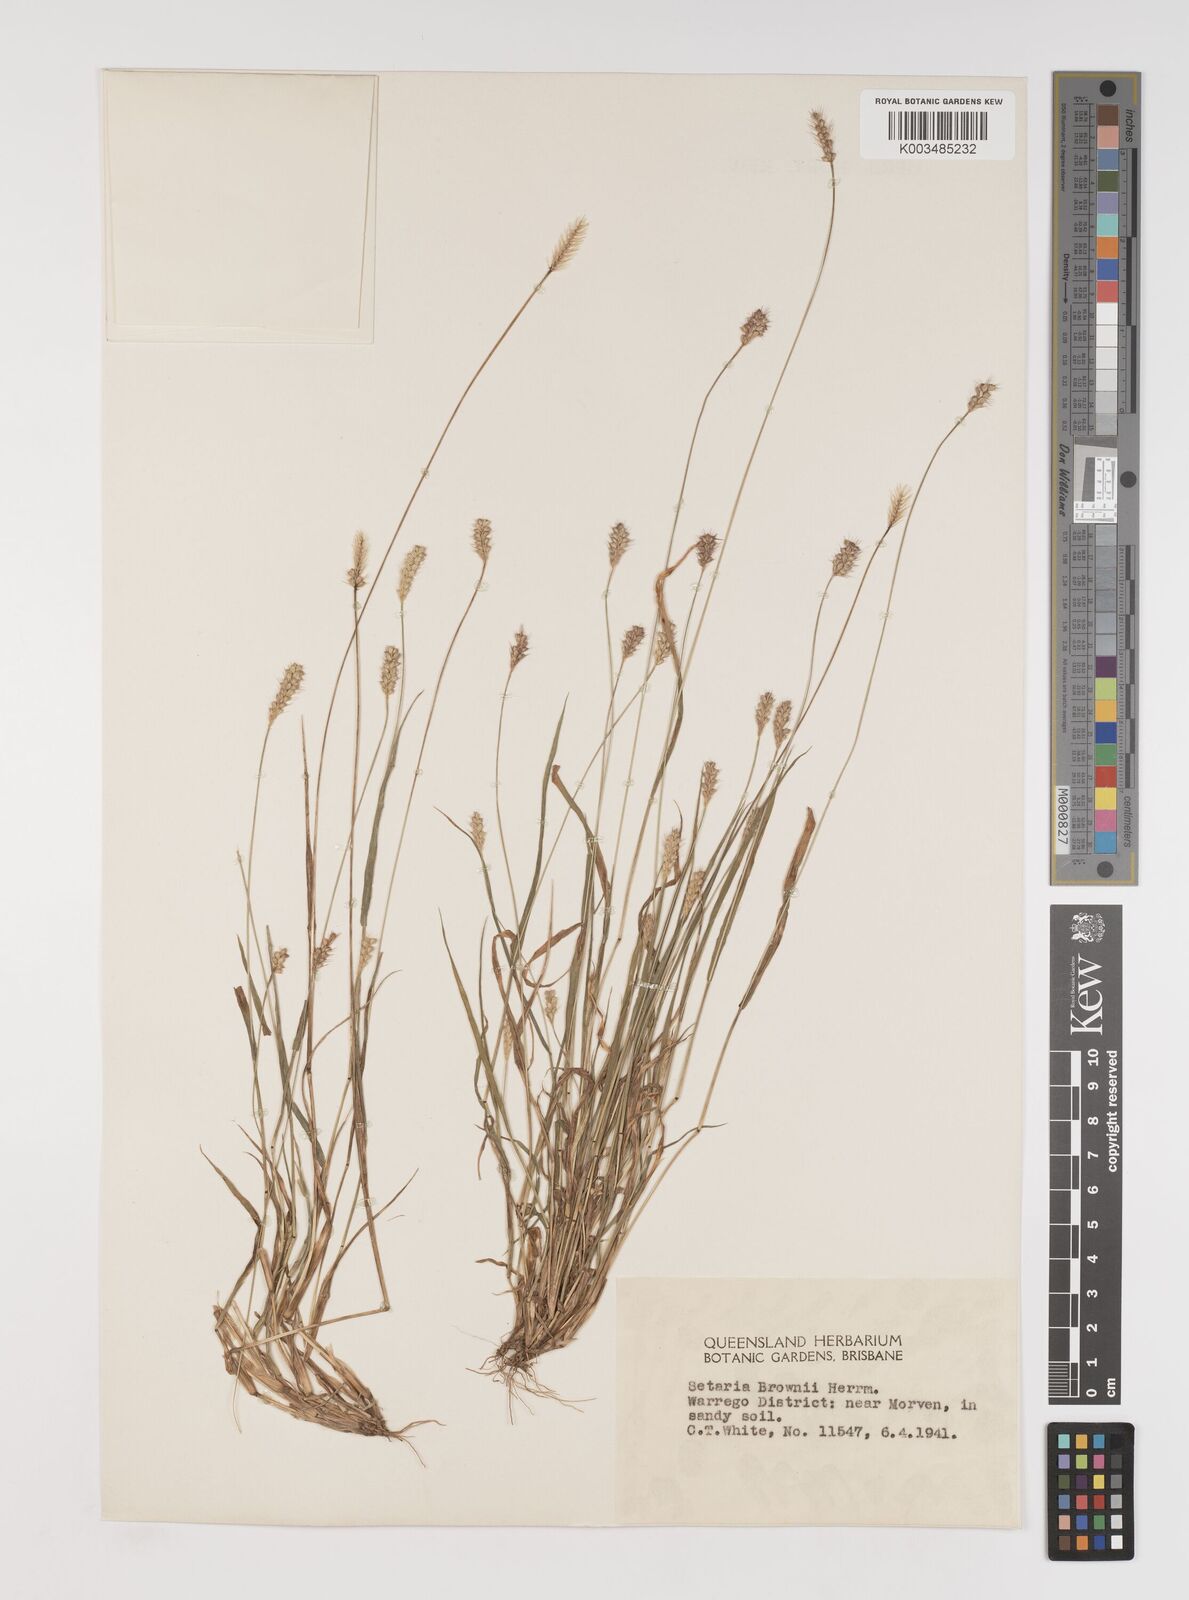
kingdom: Plantae
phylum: Tracheophyta
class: Liliopsida
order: Poales
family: Poaceae
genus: Setaria
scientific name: Setaria surgens
